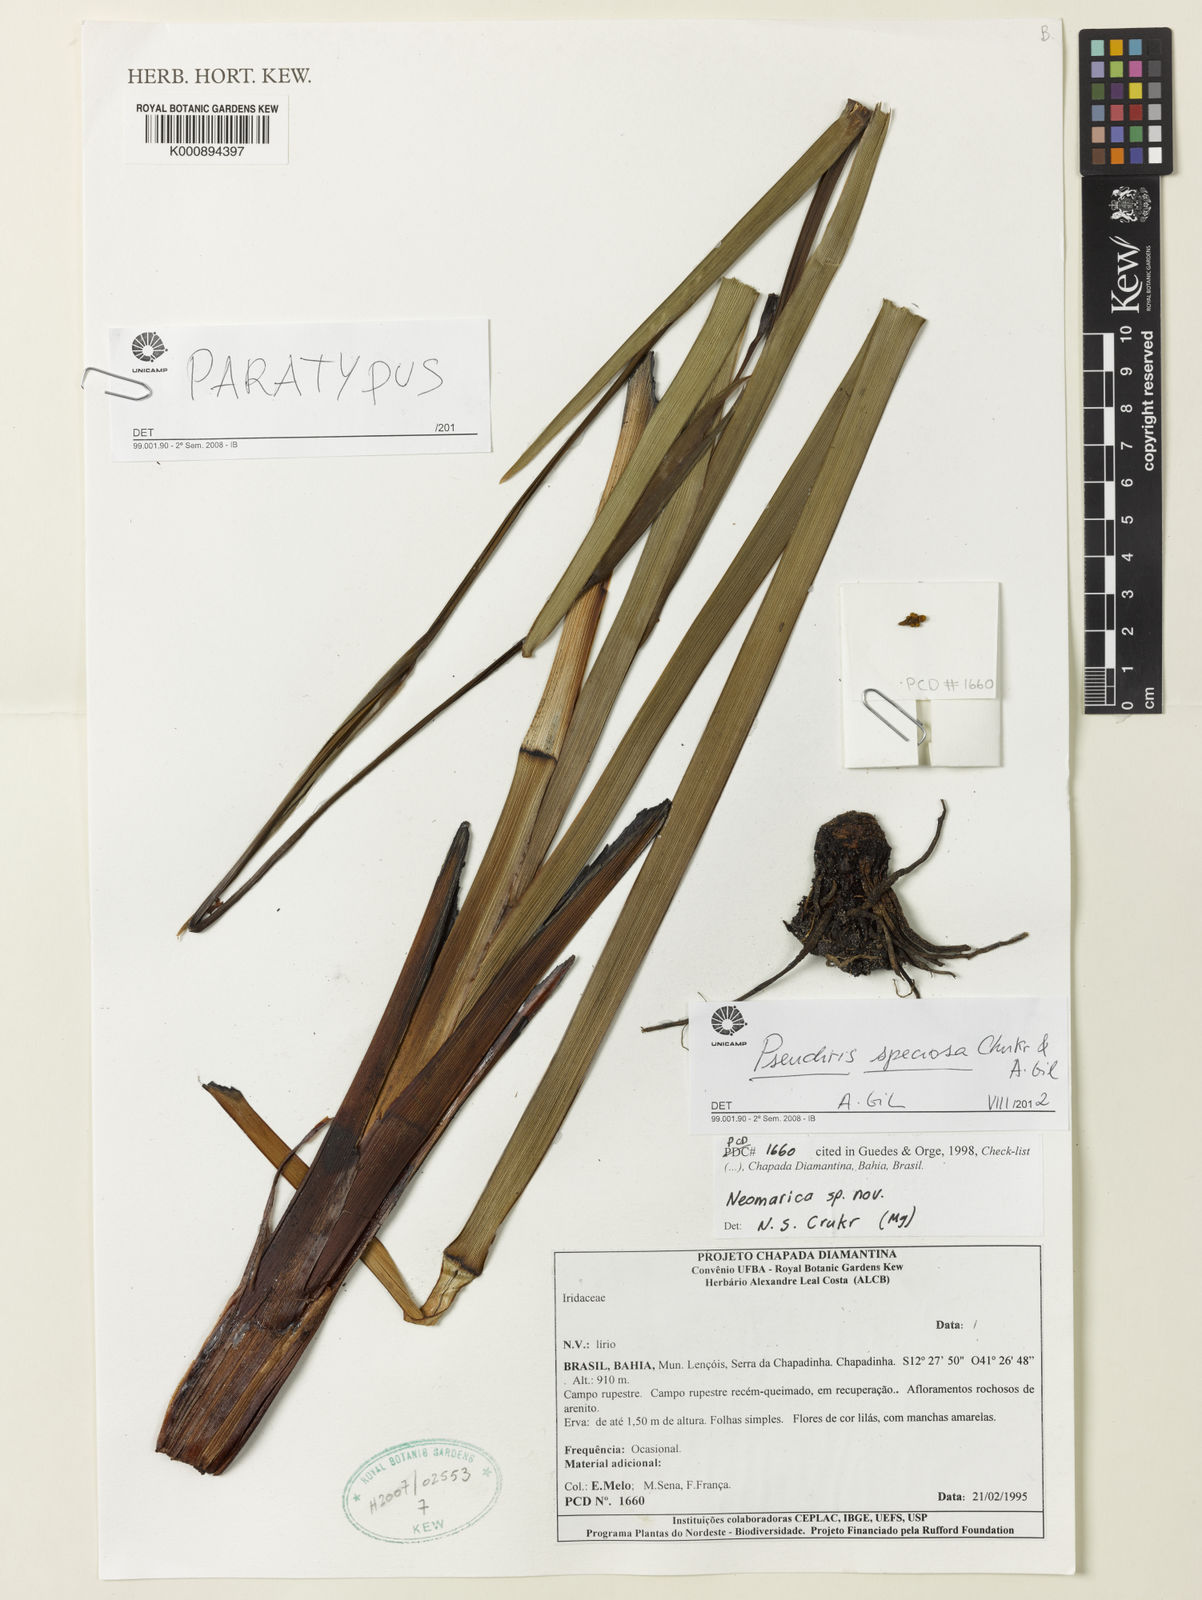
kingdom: Plantae
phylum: Tracheophyta
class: Liliopsida
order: Asparagales
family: Iridaceae
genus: Trimezia
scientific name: Trimezia speciosa
